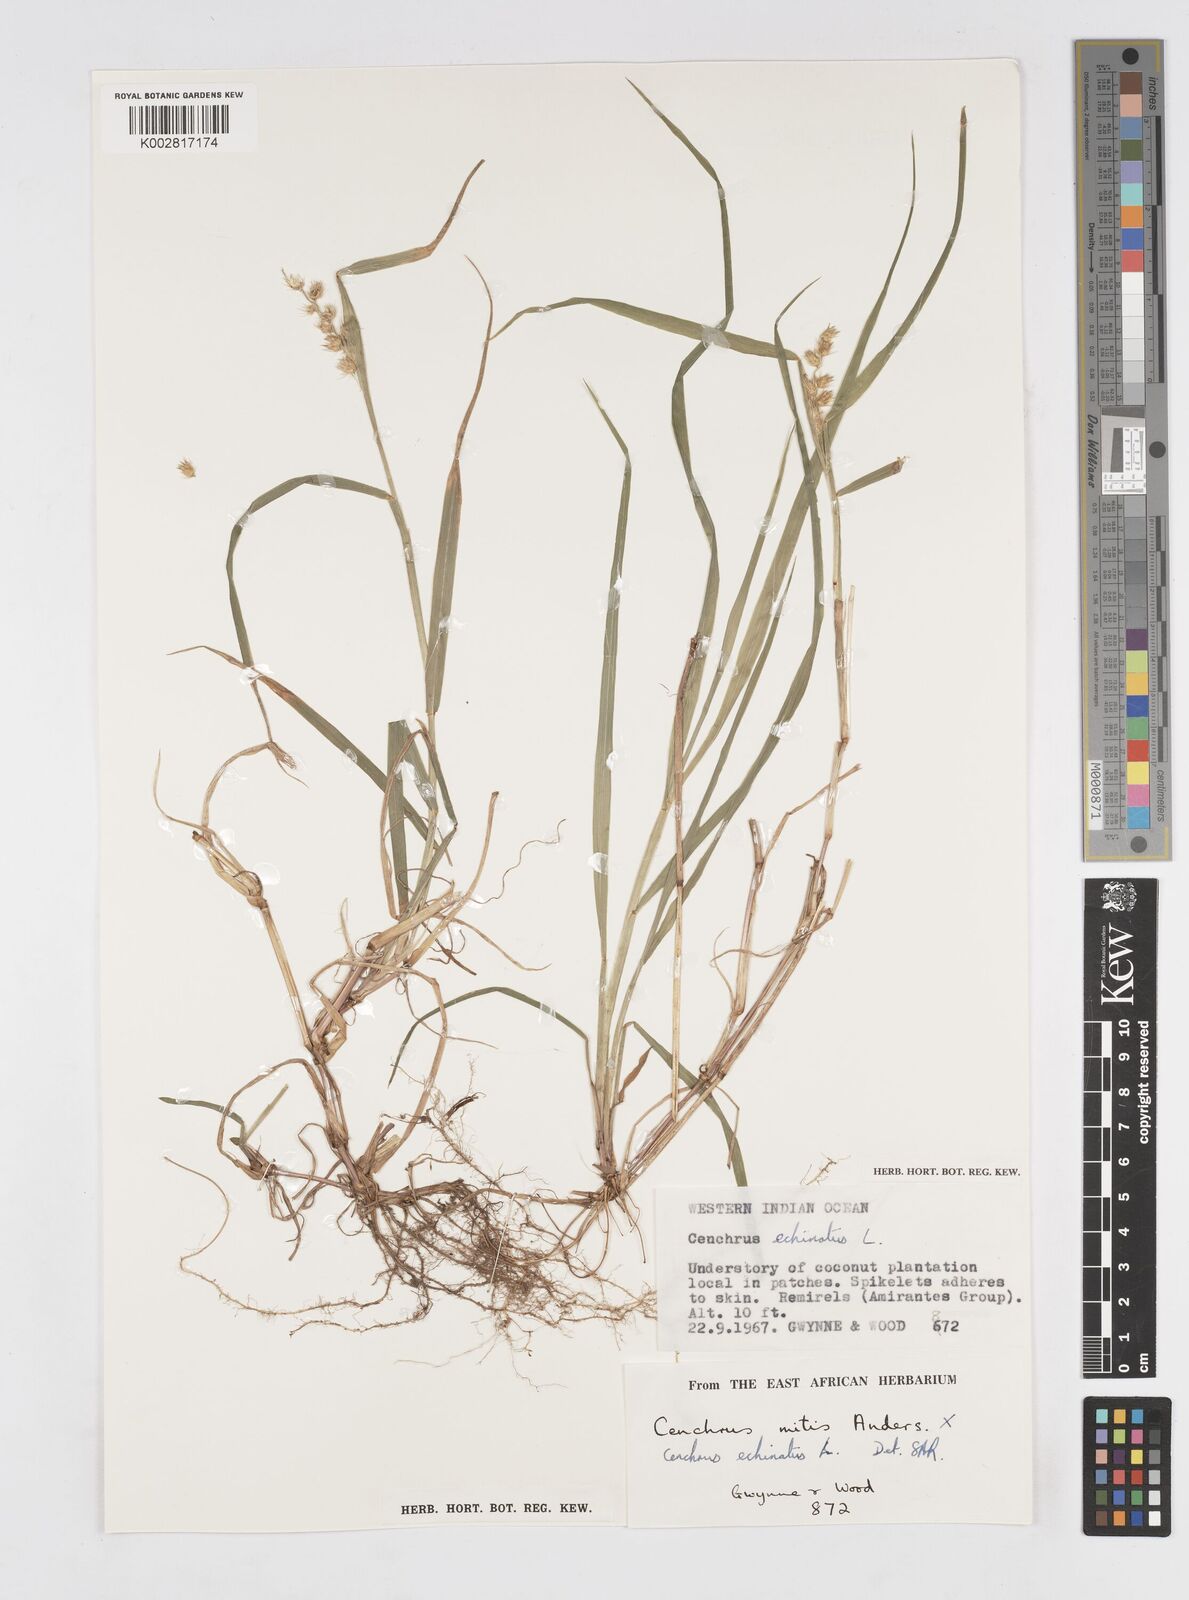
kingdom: Plantae
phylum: Tracheophyta
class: Liliopsida
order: Poales
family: Poaceae
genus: Cenchrus
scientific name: Cenchrus echinatus
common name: Southern sandbur
